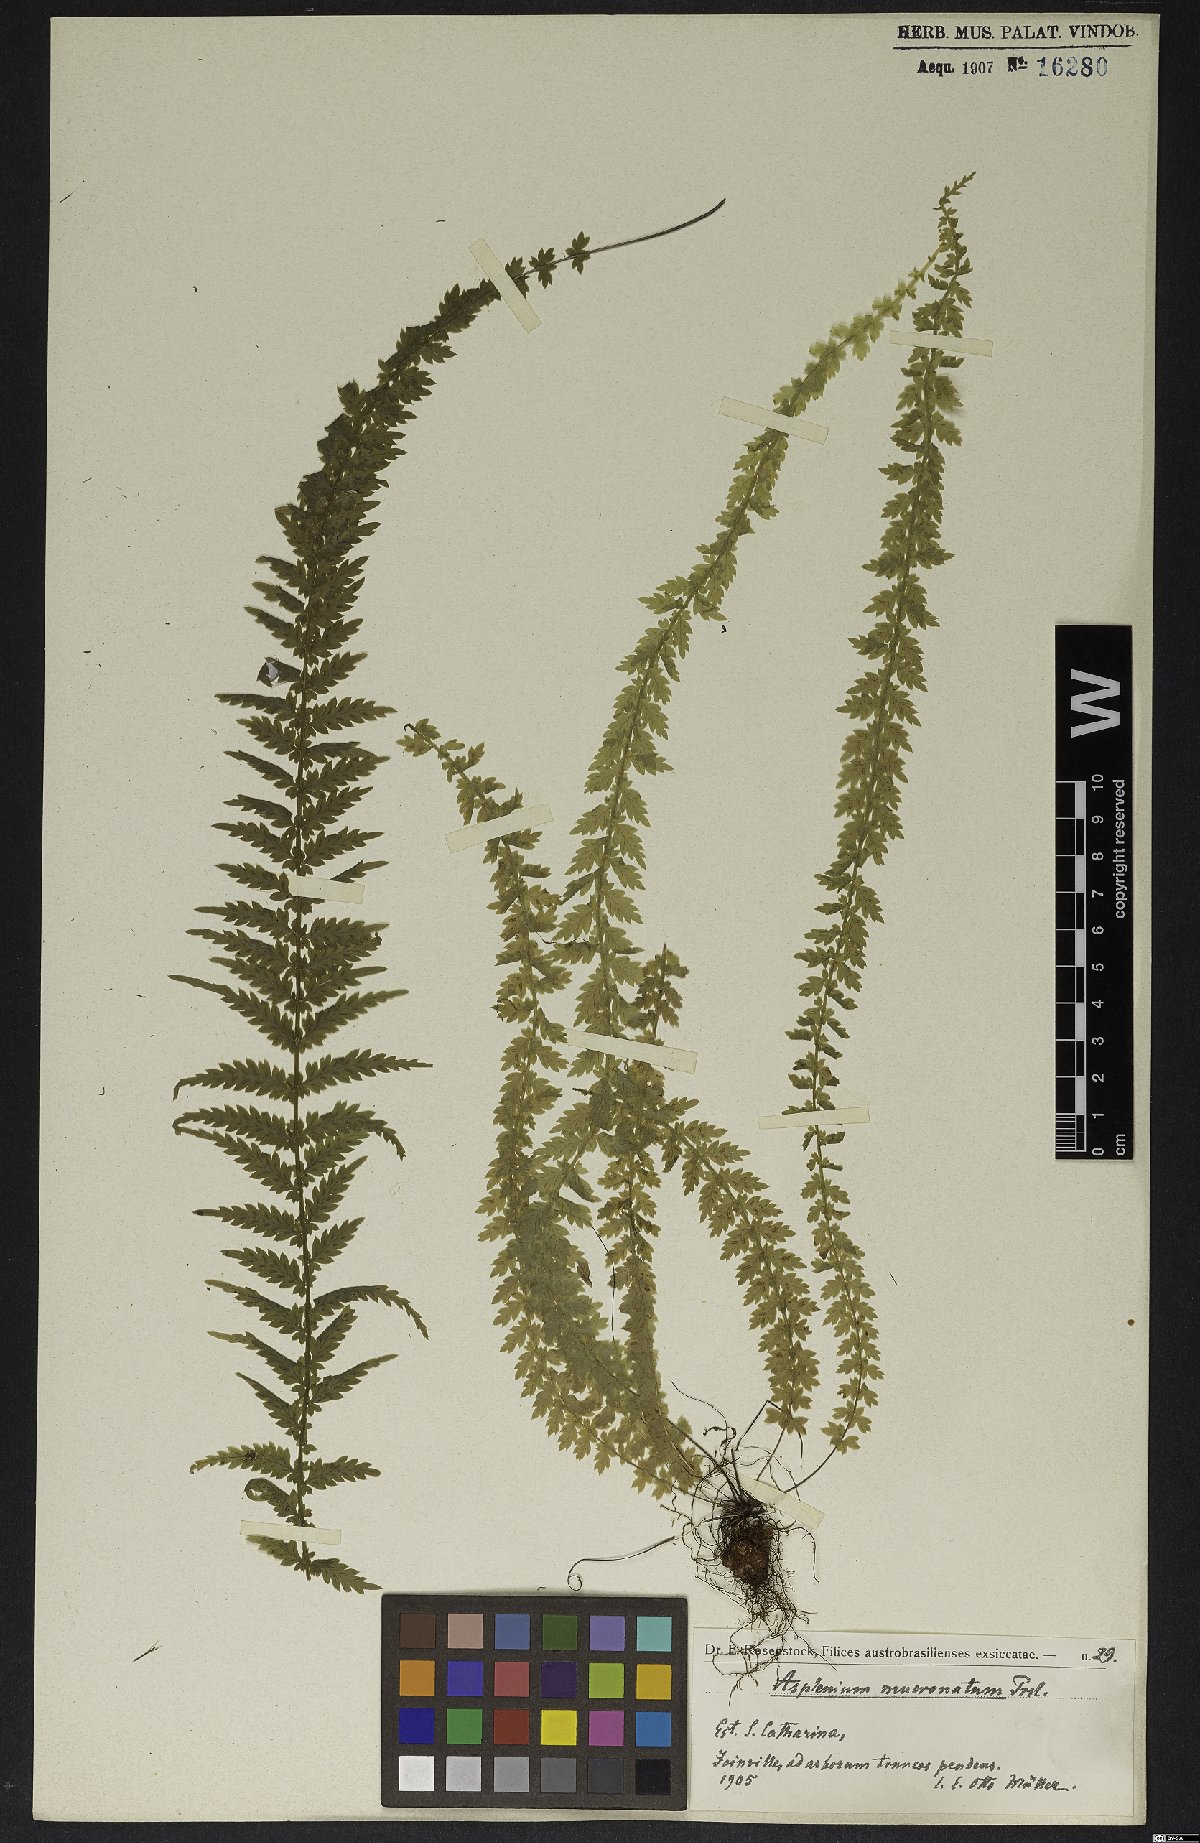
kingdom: Plantae
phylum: Tracheophyta
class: Polypodiopsida
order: Polypodiales
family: Aspleniaceae
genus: Asplenium
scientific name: Asplenium mucronatum
